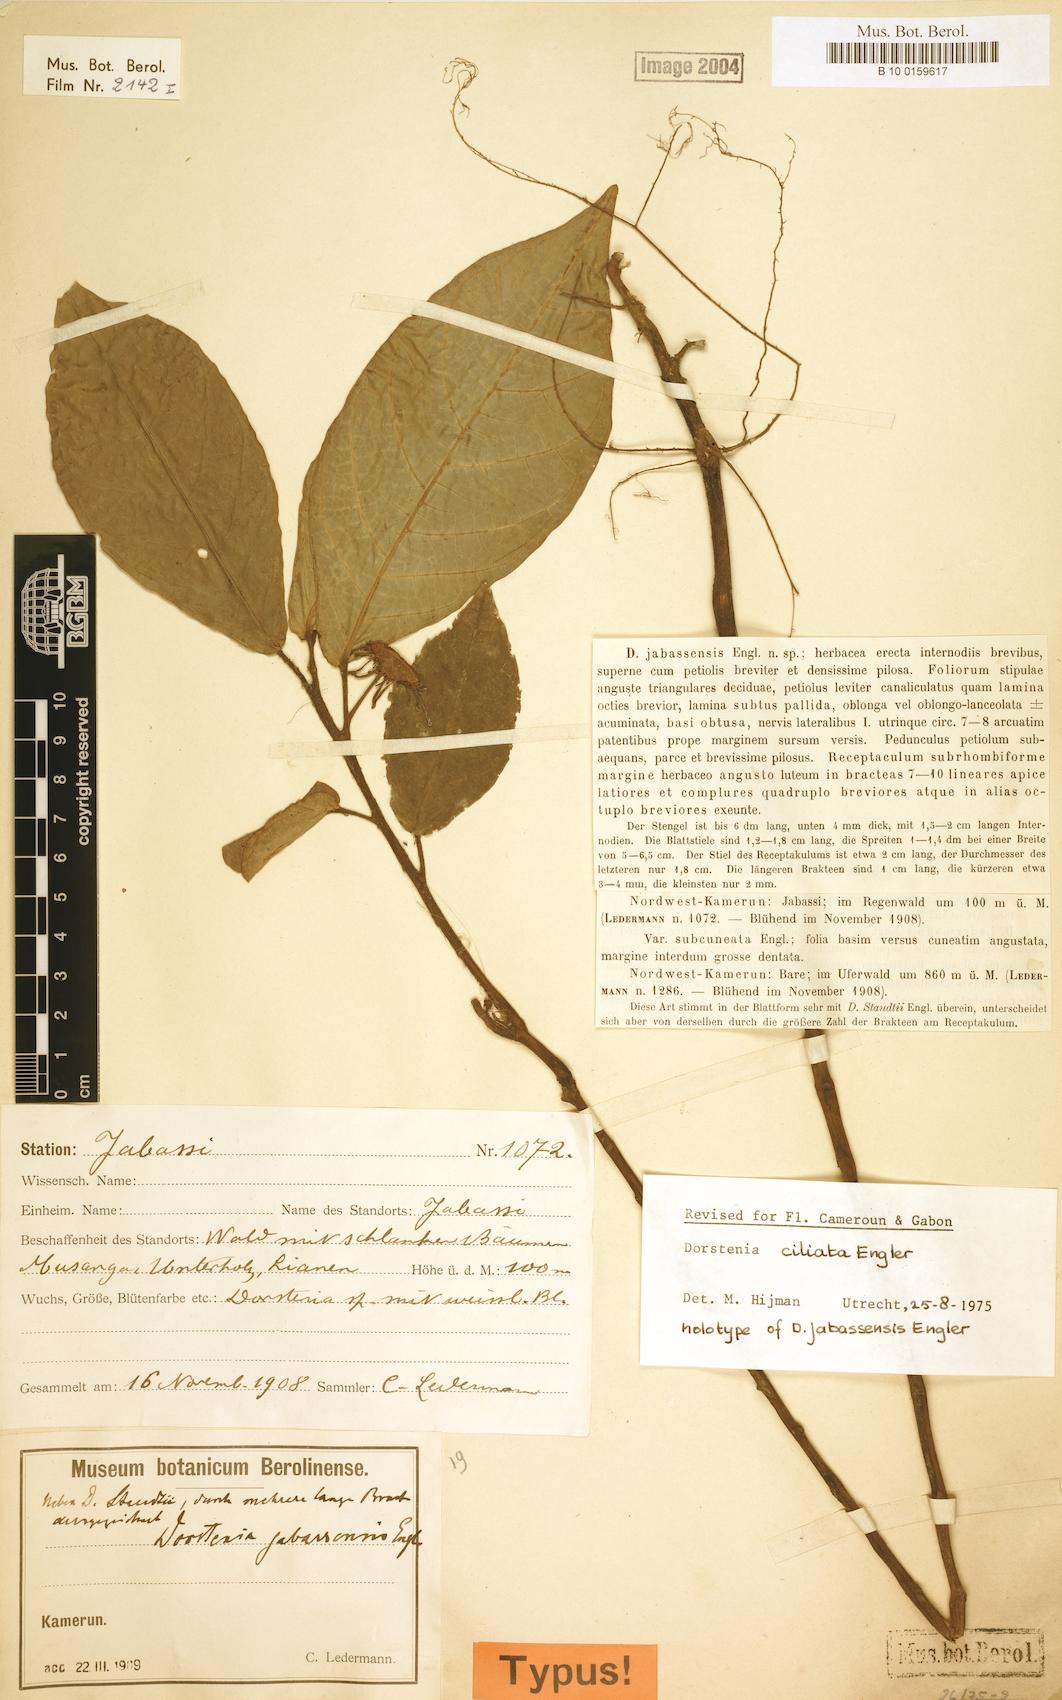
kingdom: Plantae
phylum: Tracheophyta
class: Magnoliopsida
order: Rosales
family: Moraceae
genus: Dorstenia
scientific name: Dorstenia ciliata
